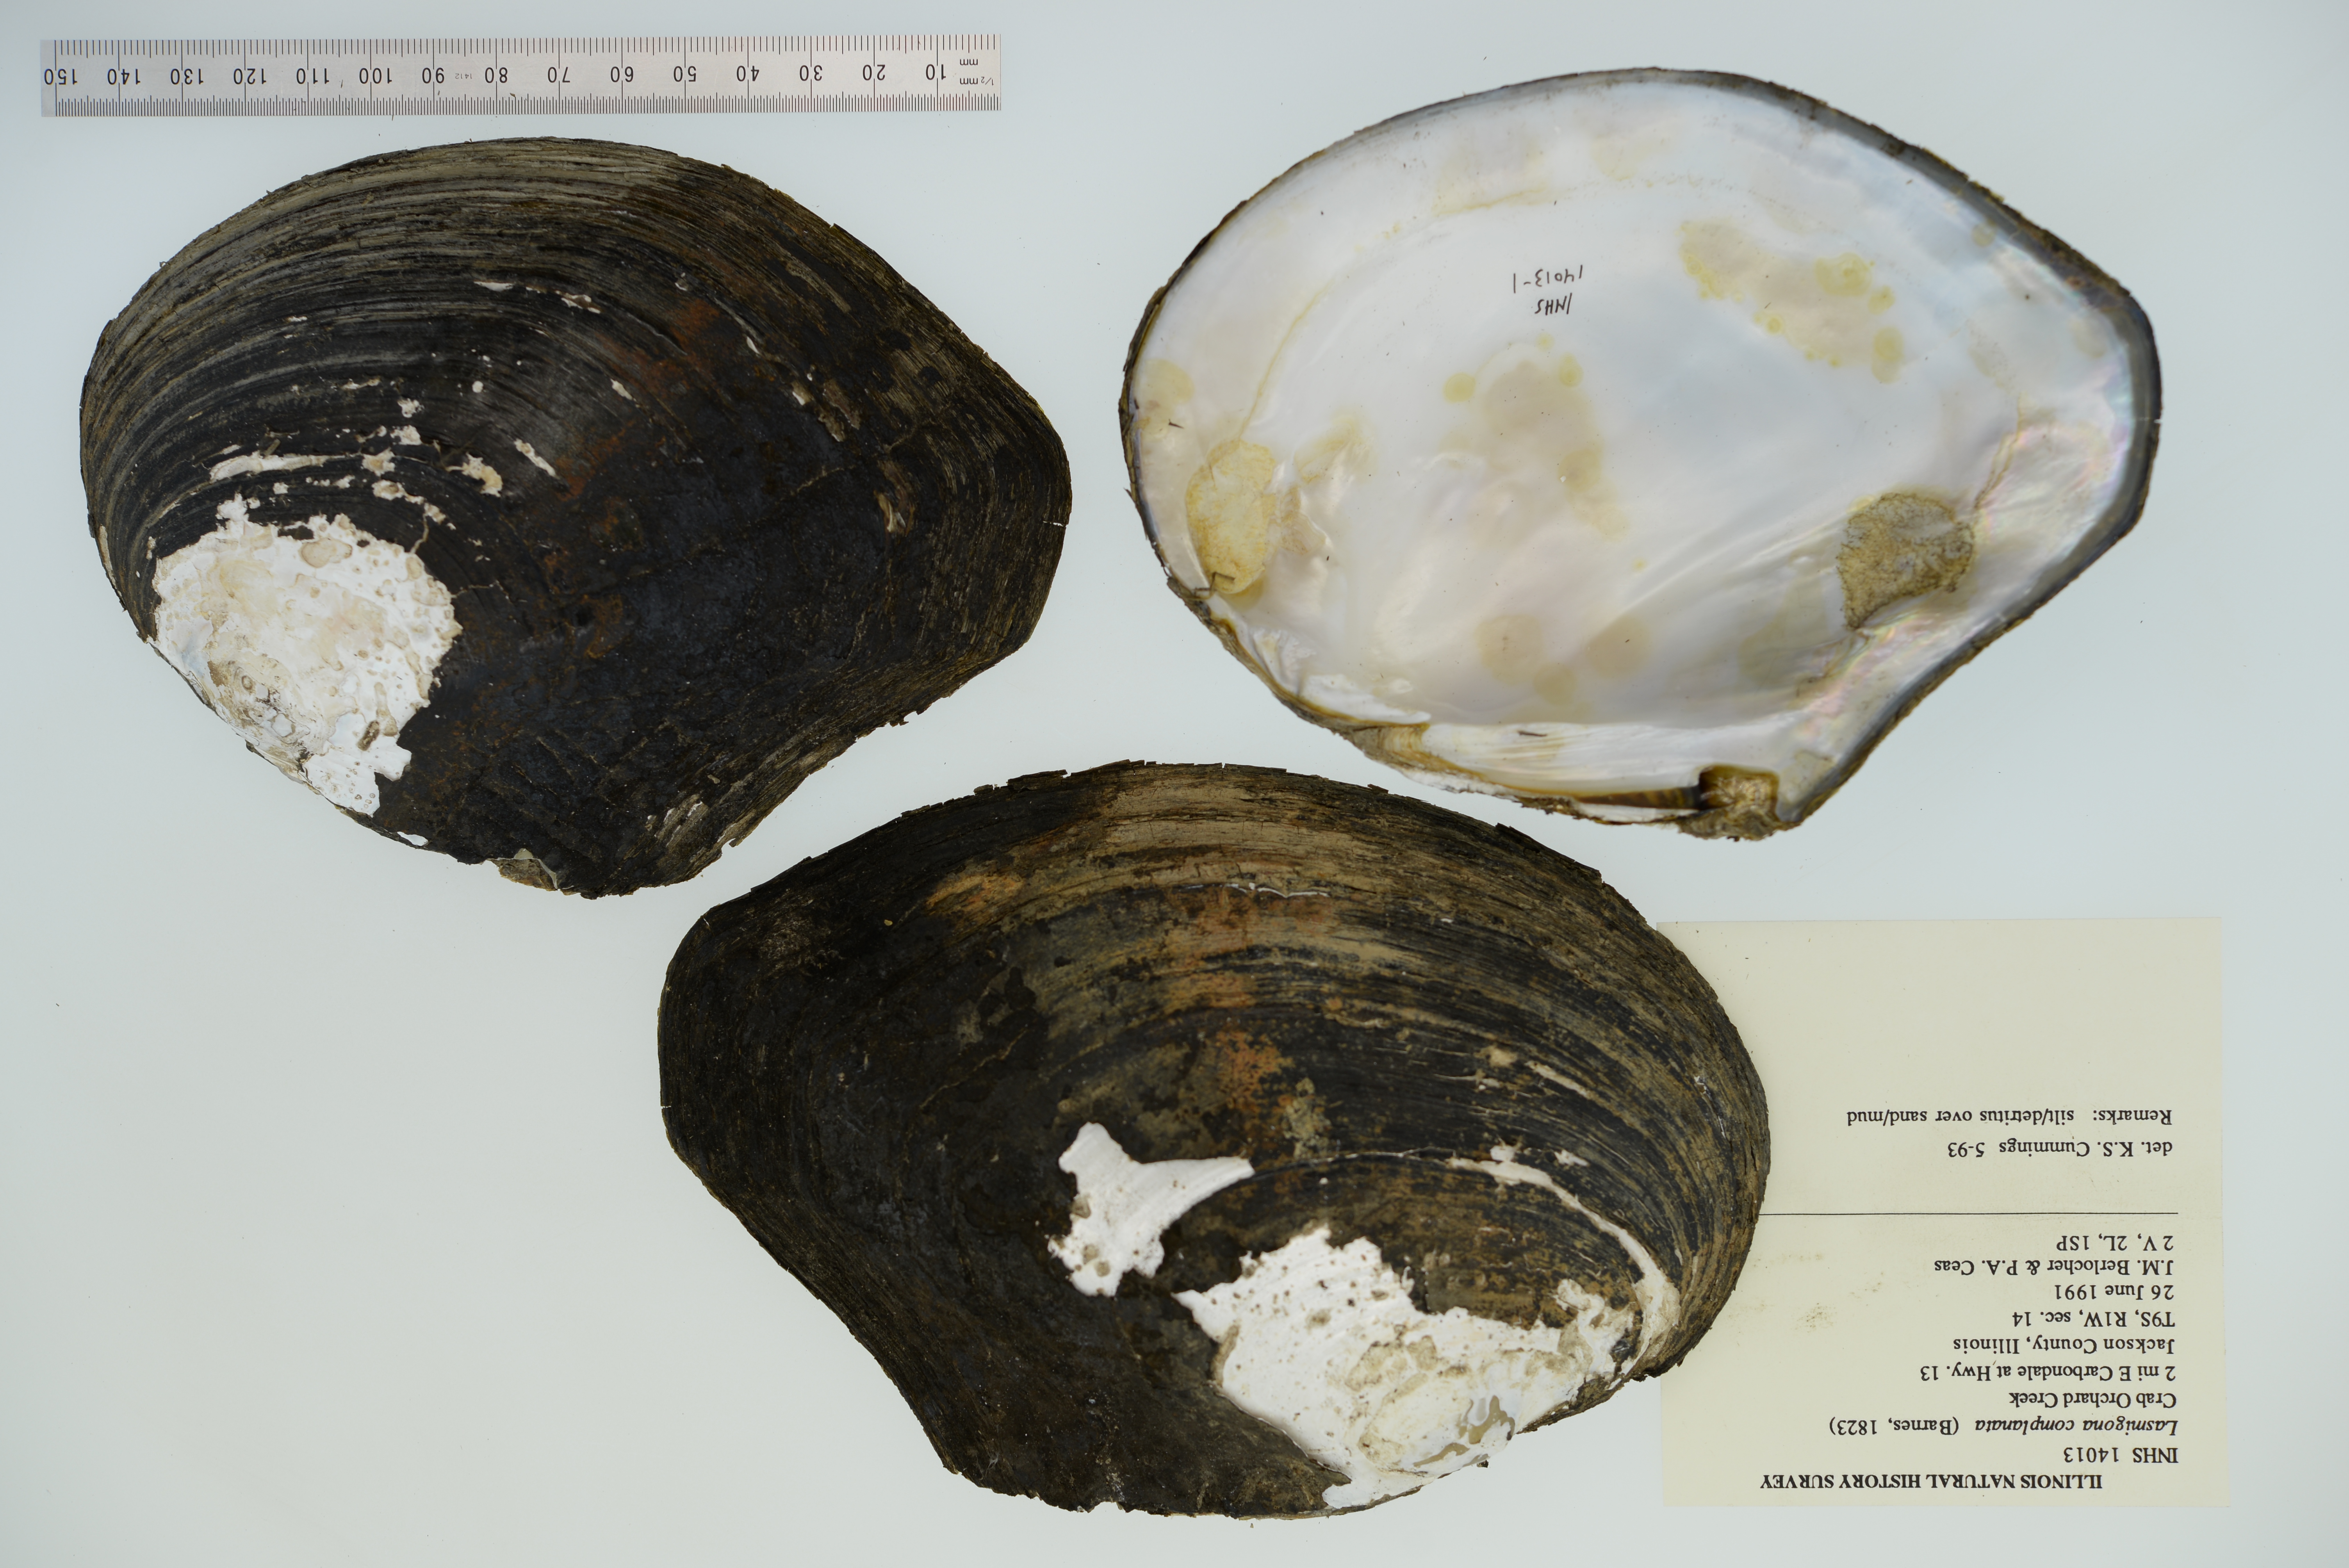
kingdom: Animalia
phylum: Mollusca
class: Bivalvia
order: Unionida
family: Unionidae
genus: Lasmigona
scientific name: Lasmigona complanata
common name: White heelsplitter
